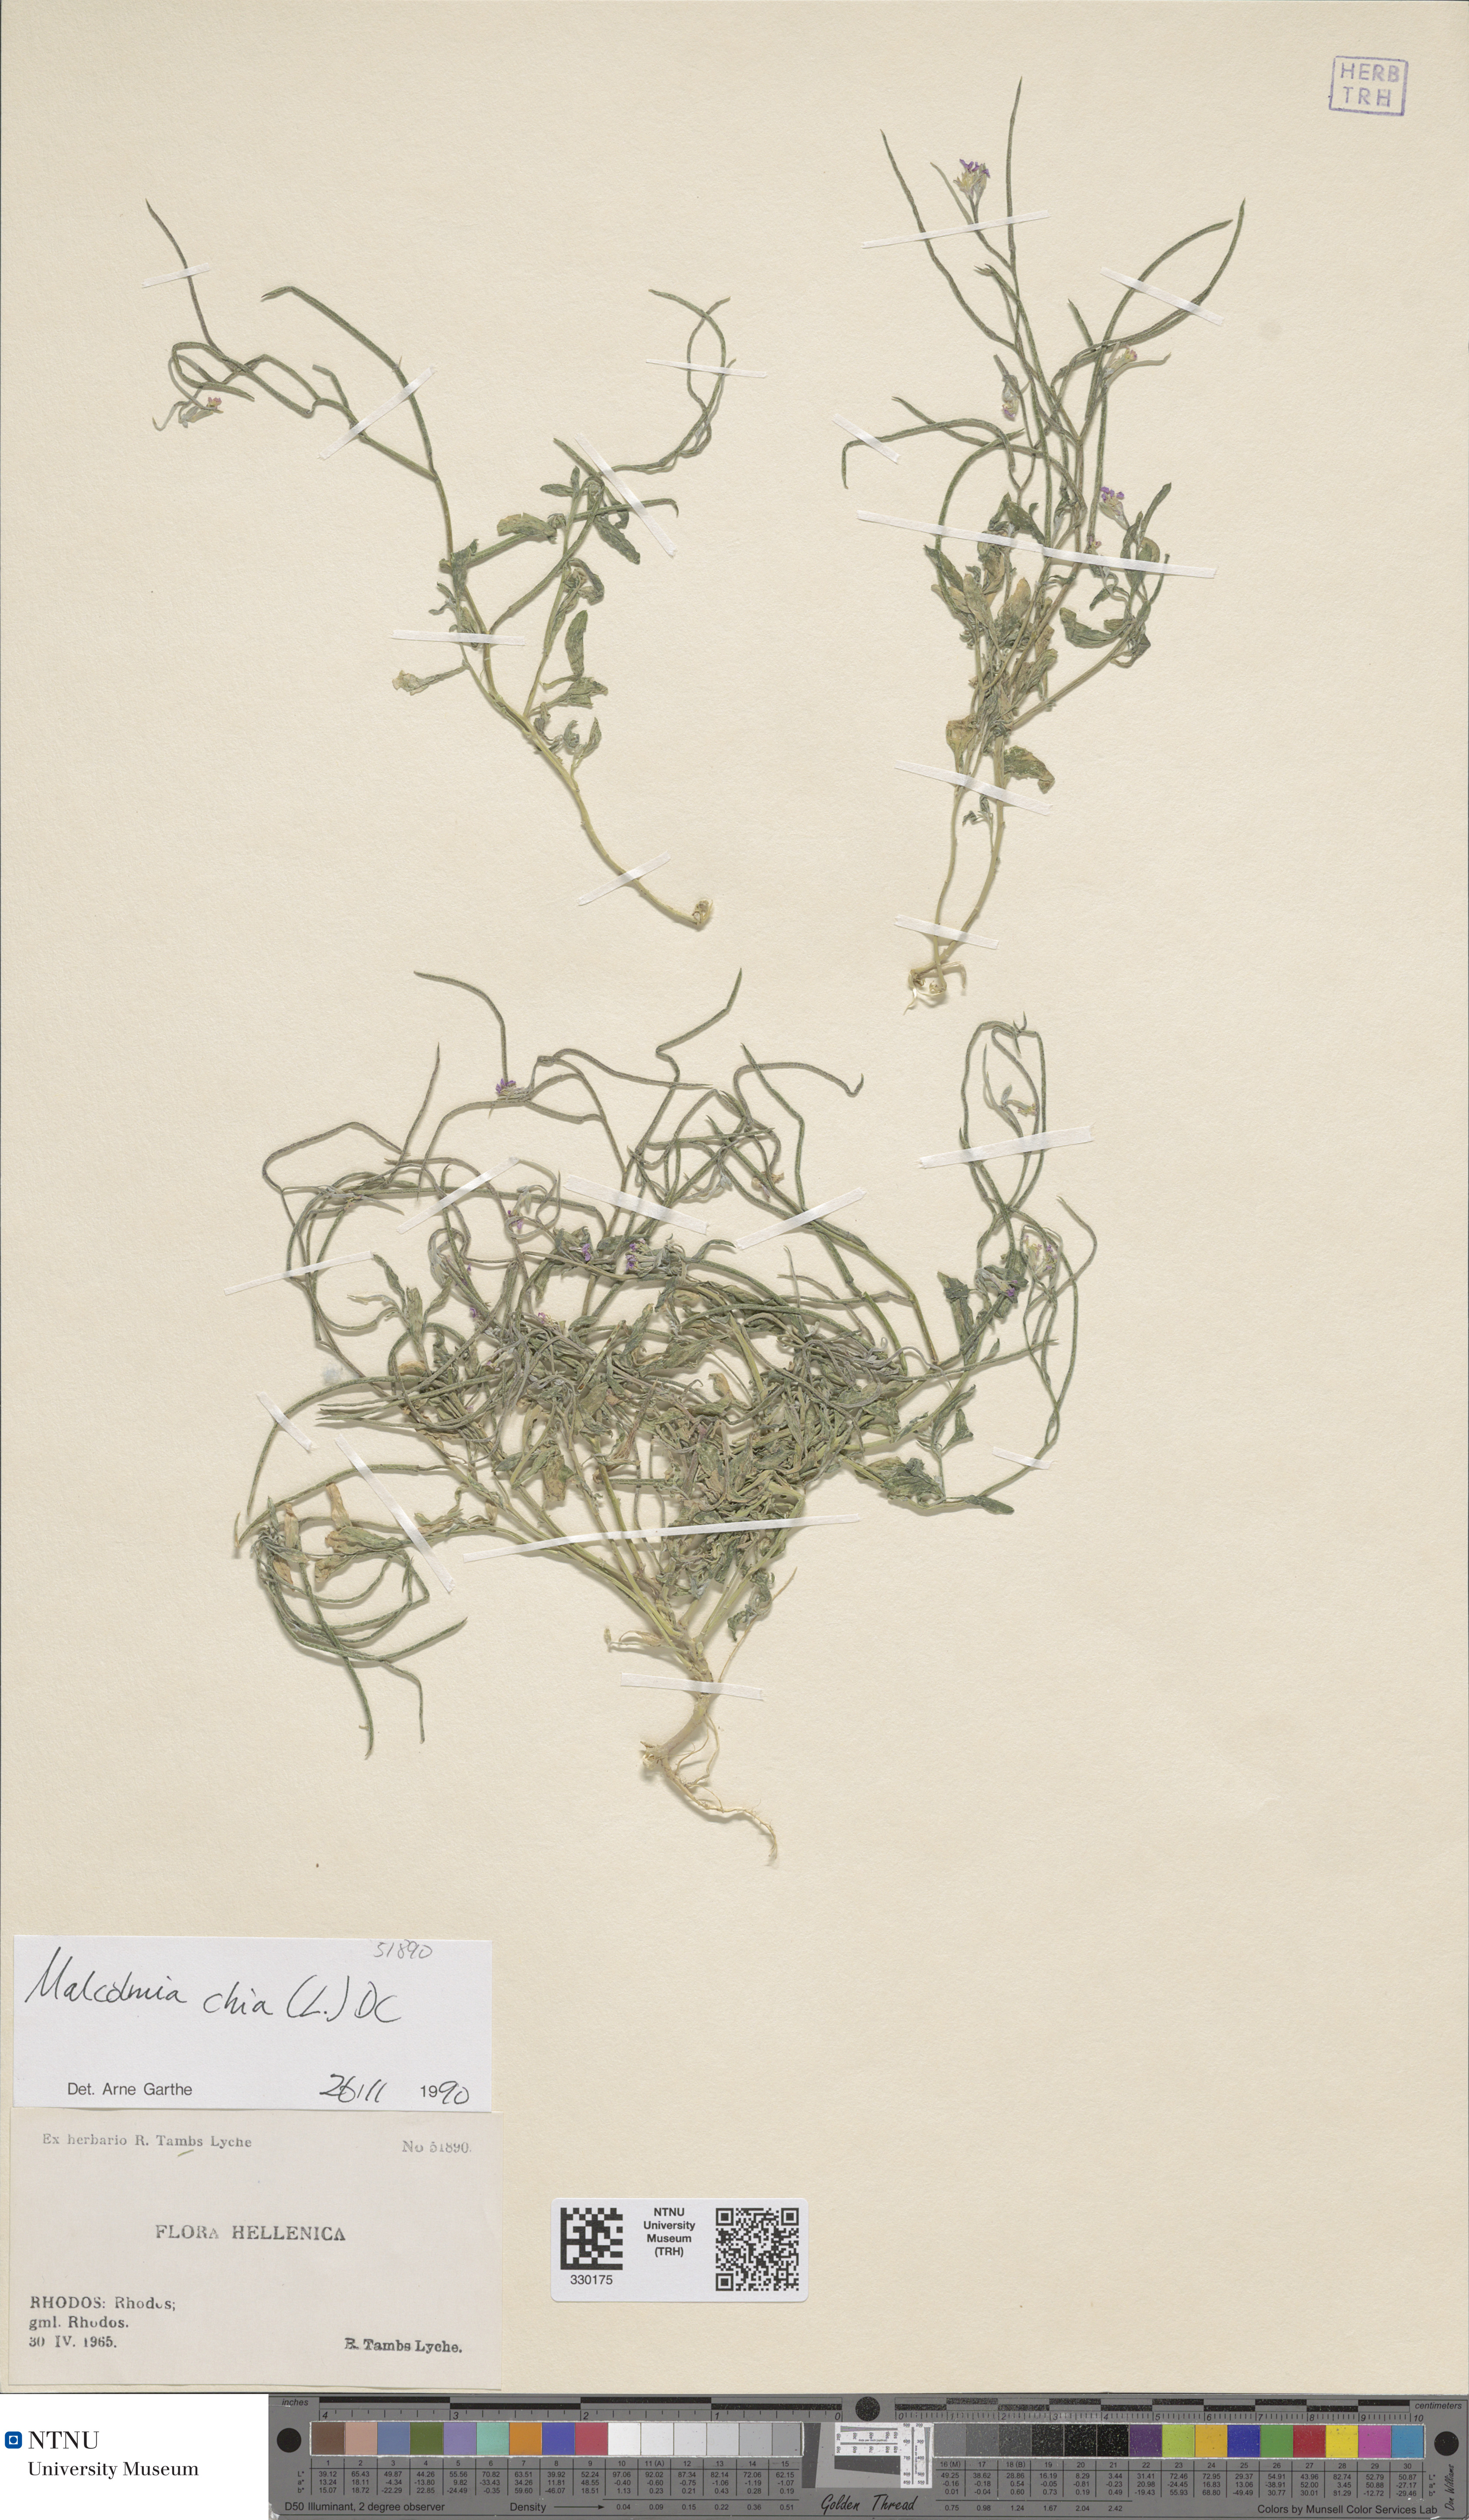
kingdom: Plantae
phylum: Tracheophyta
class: Magnoliopsida
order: Brassicales
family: Brassicaceae
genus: Malcolmia
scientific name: Malcolmia chia
